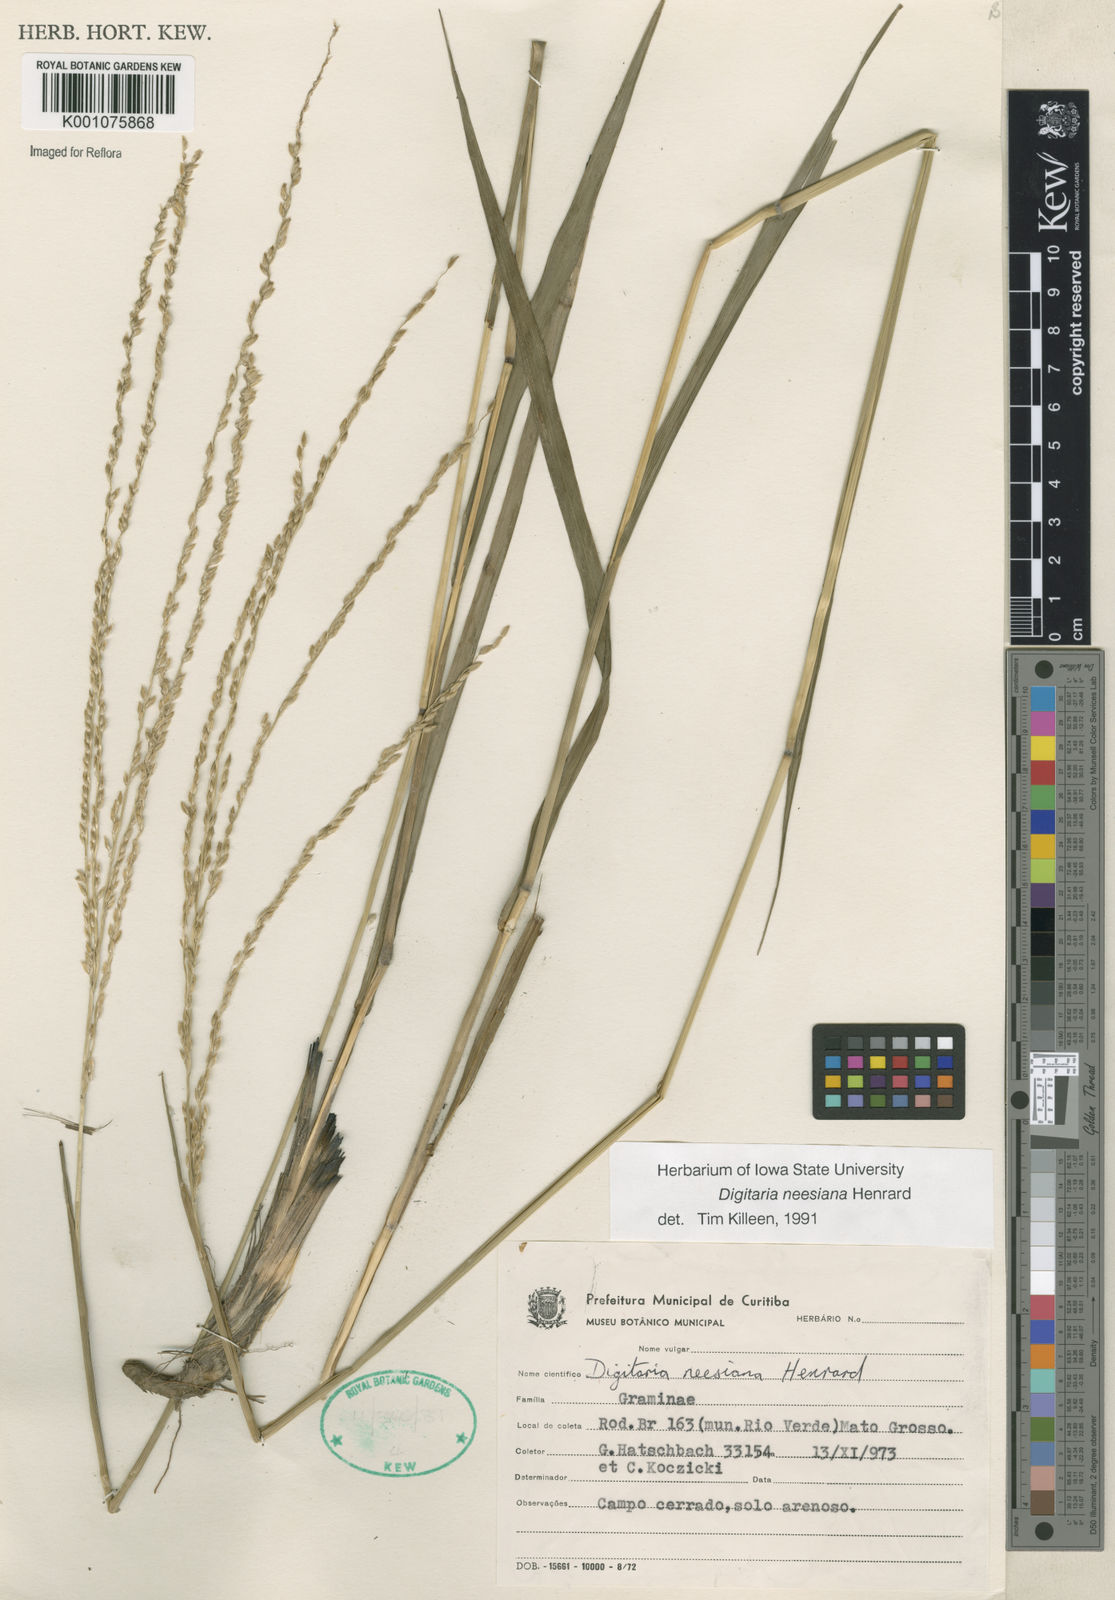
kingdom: Plantae
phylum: Tracheophyta
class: Liliopsida
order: Poales
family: Poaceae
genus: Digitaria
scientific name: Digitaria neesiana
